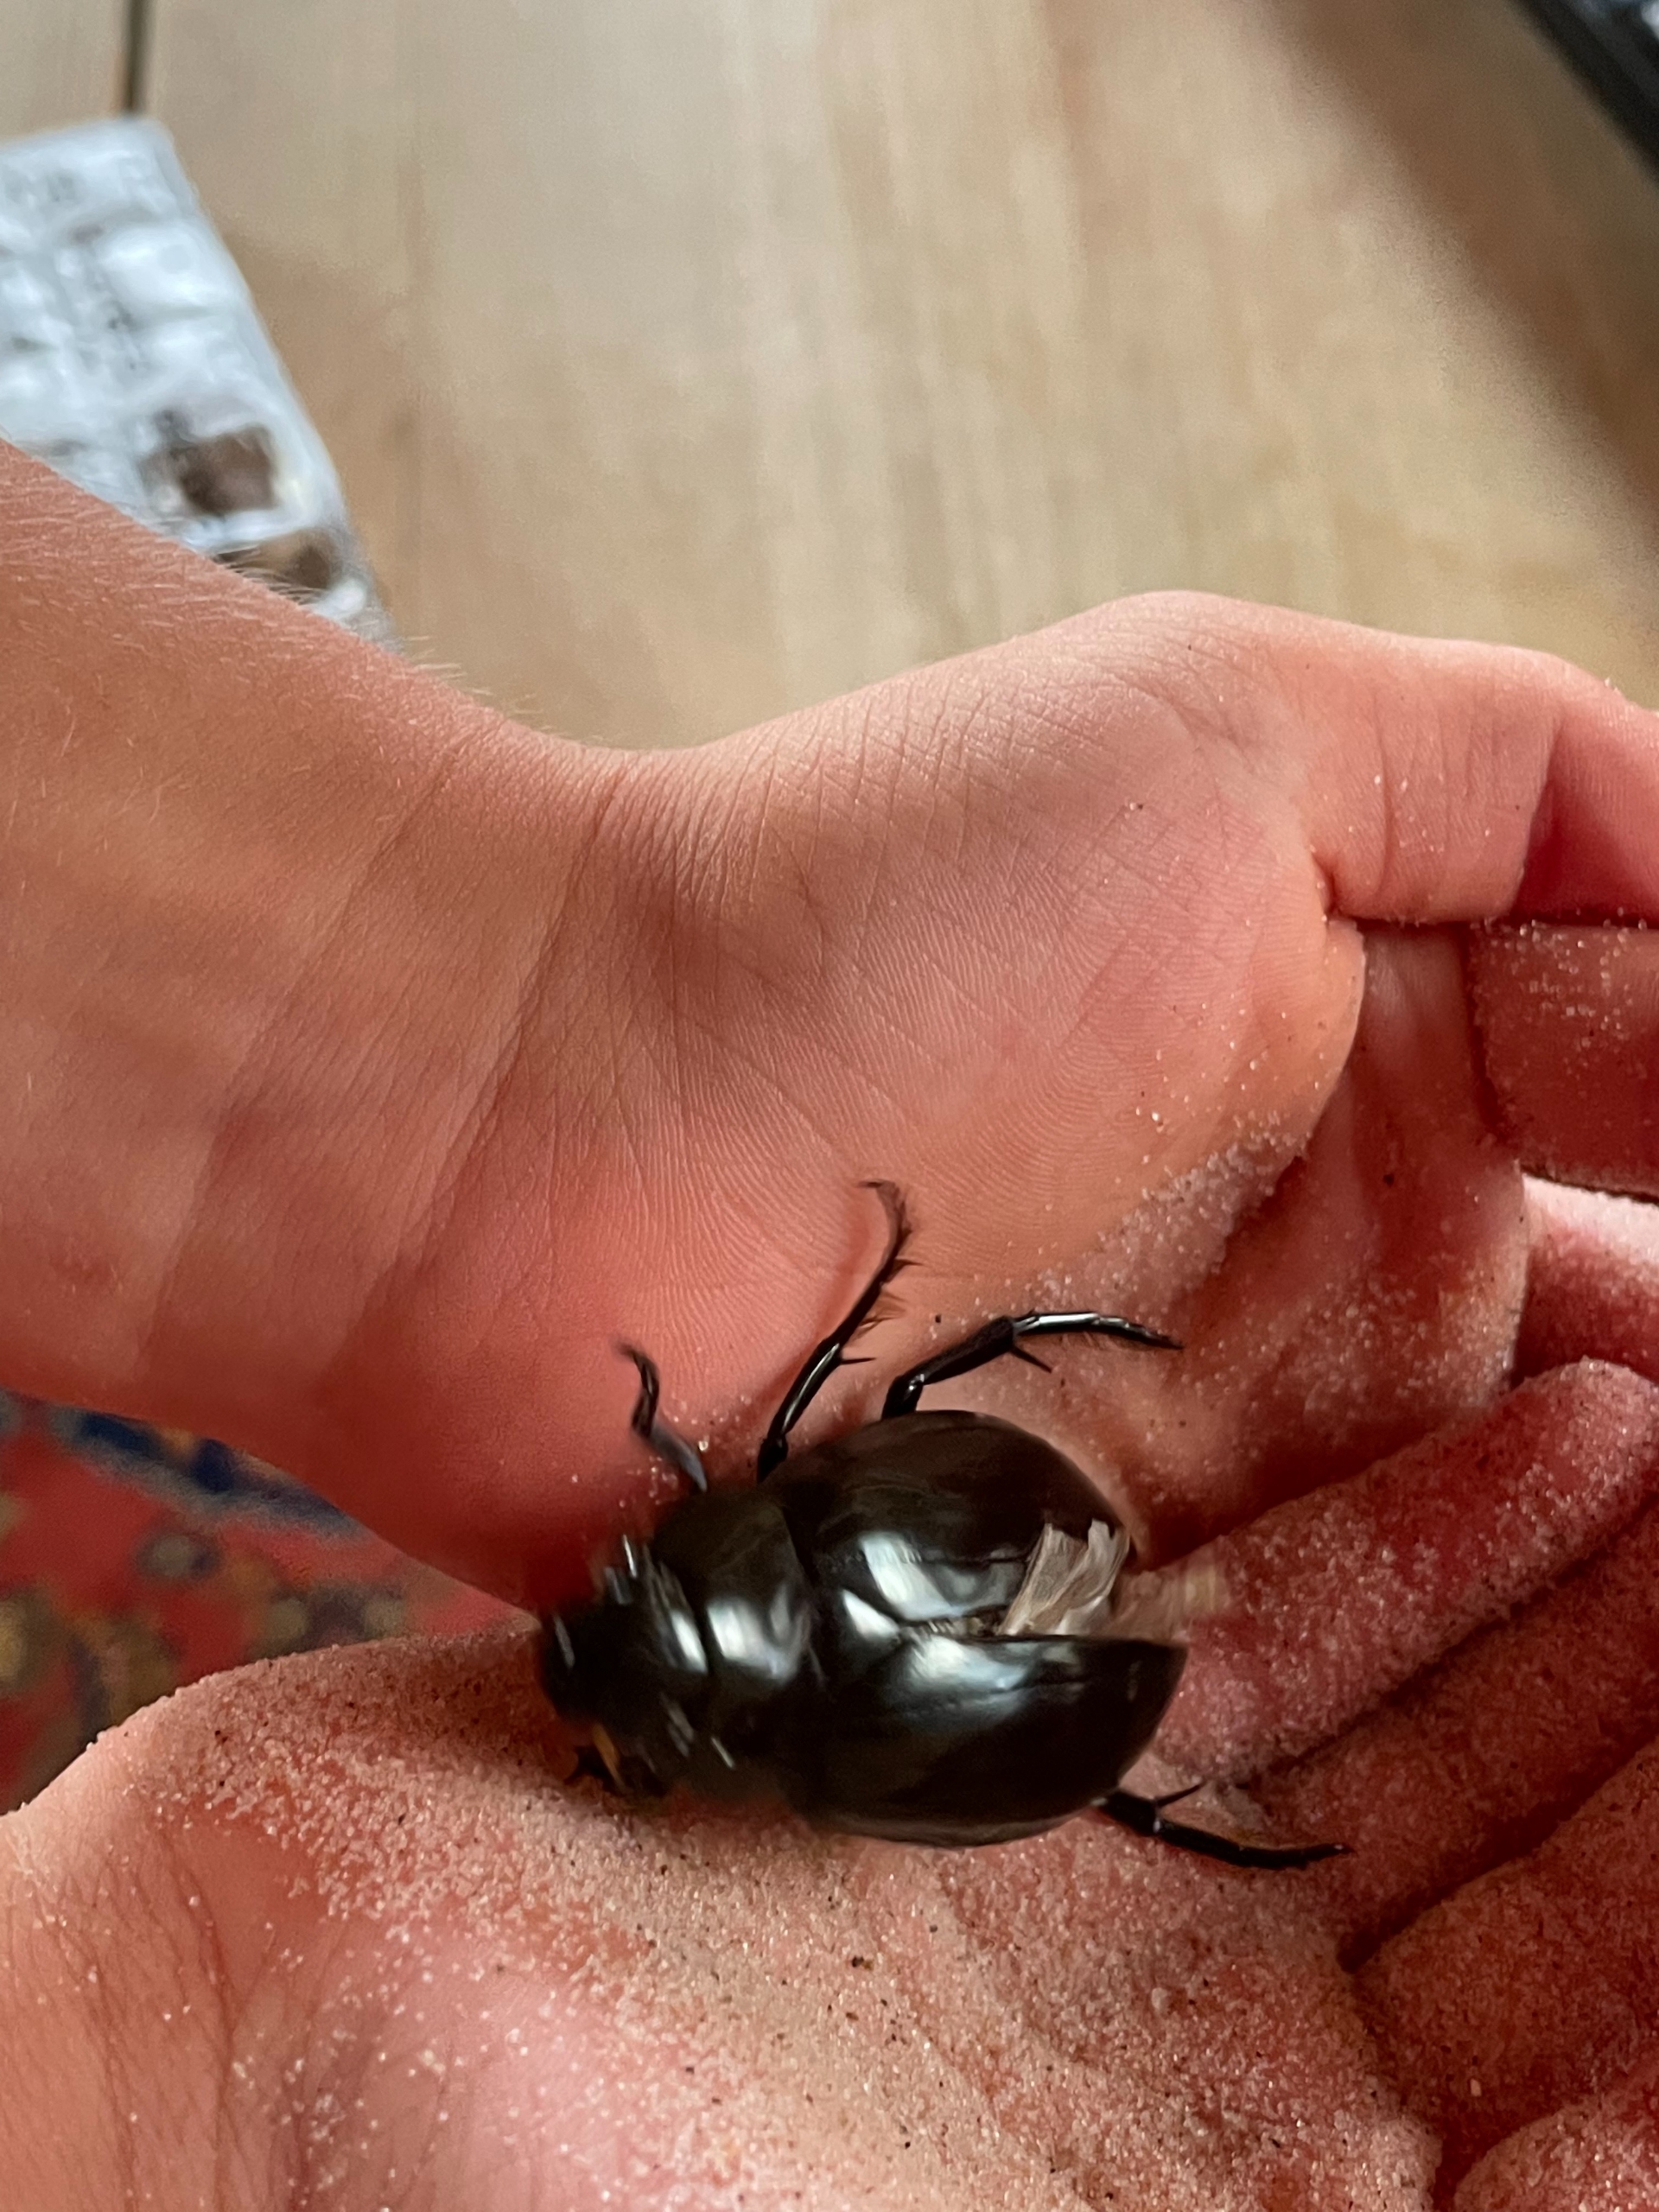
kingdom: Animalia
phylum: Arthropoda
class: Insecta
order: Coleoptera
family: Hydrophilidae
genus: Hydrophilus
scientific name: Hydrophilus
